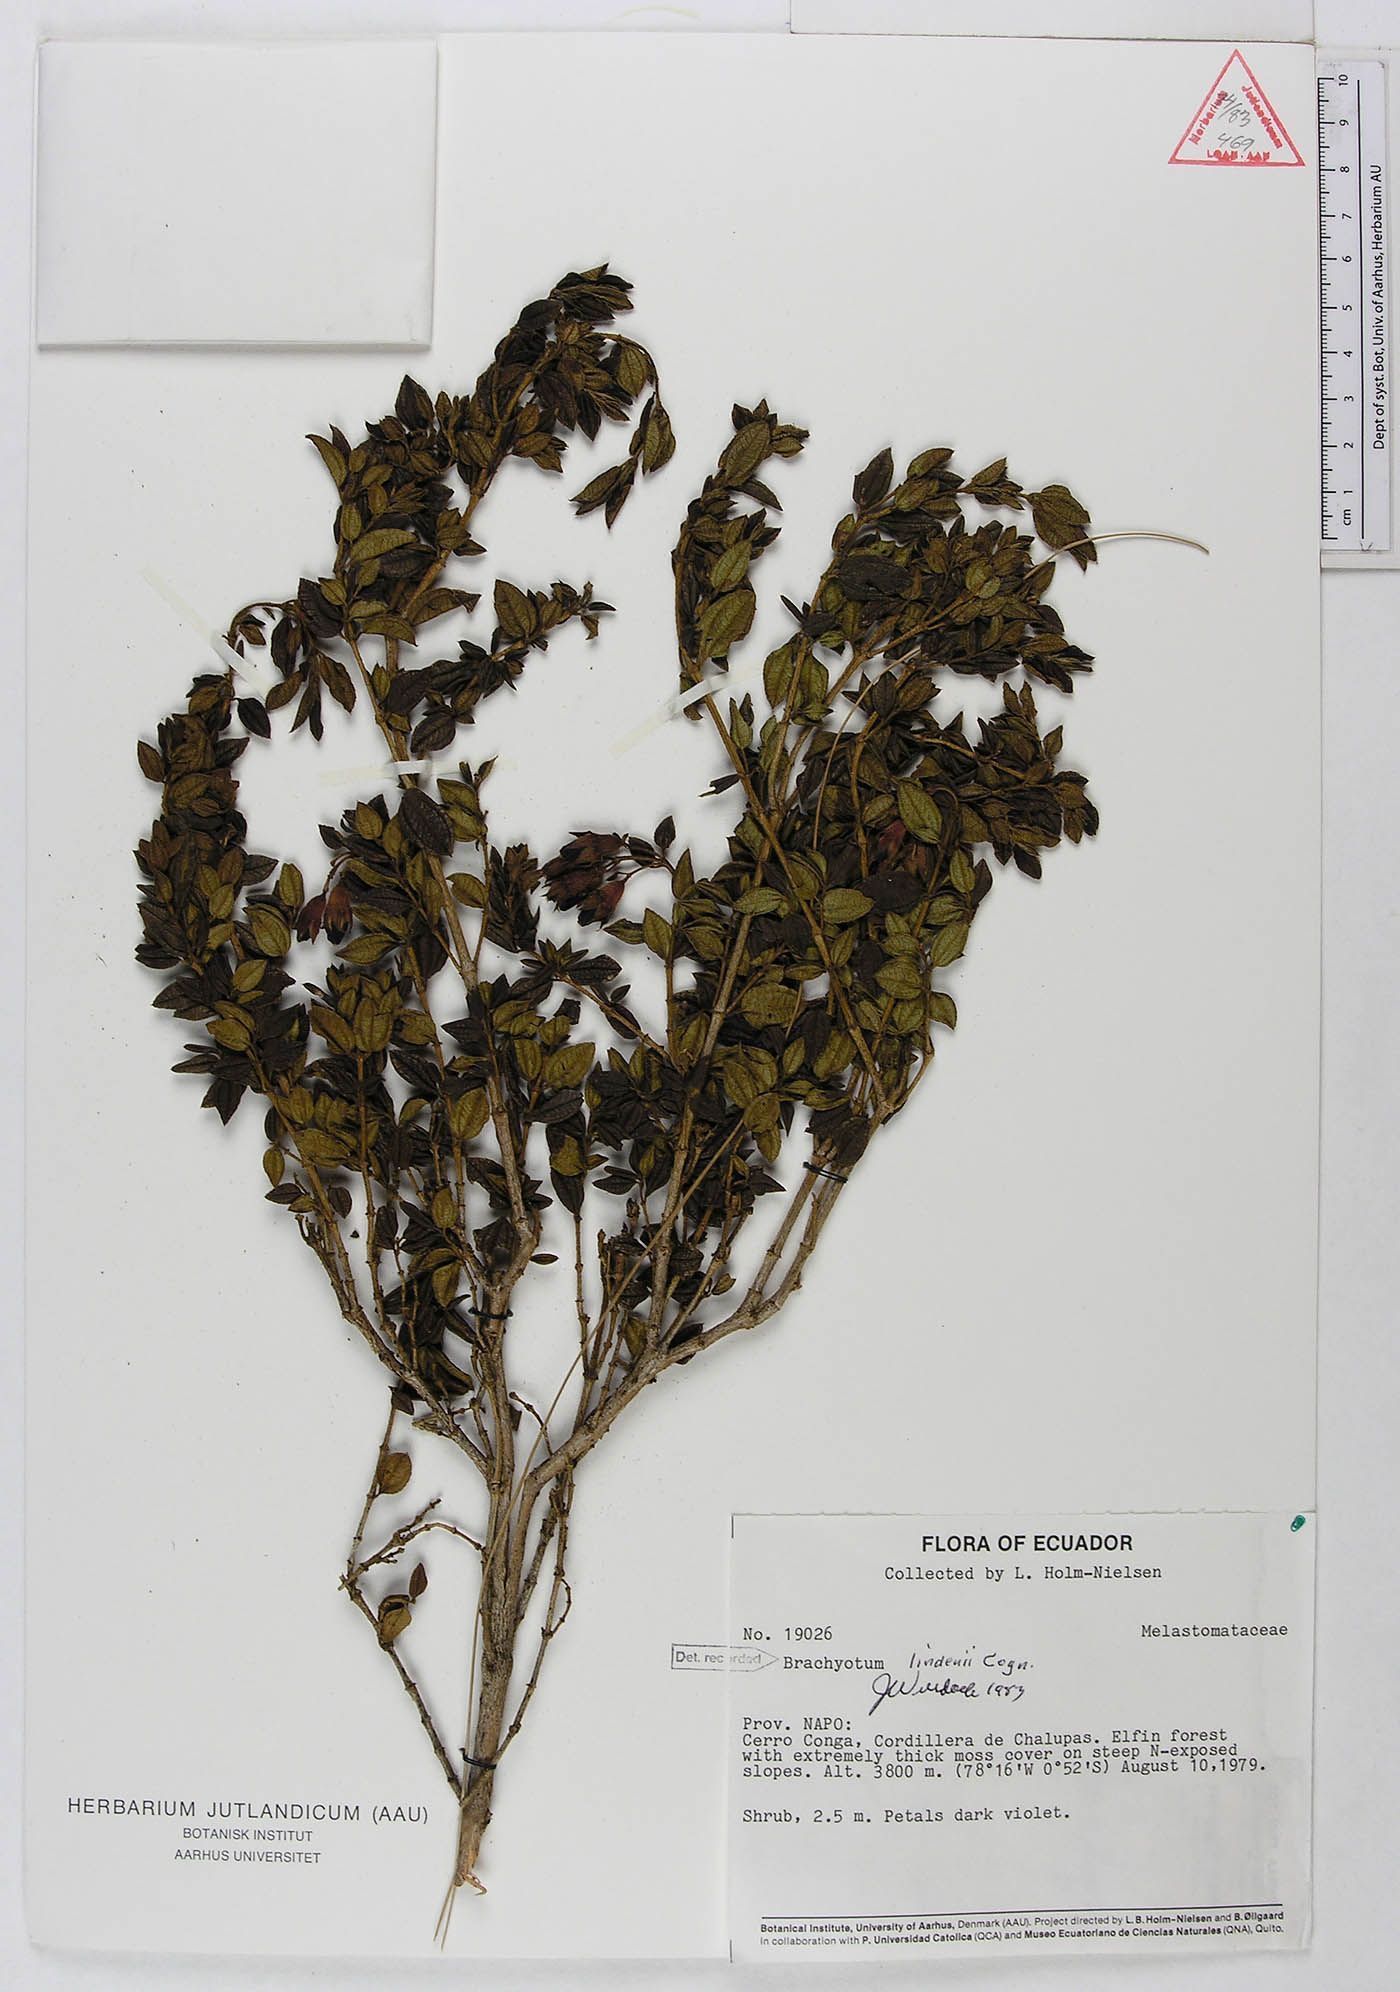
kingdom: Plantae
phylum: Tracheophyta
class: Magnoliopsida
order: Myrtales
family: Melastomataceae
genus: Brachyotum
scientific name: Brachyotum lindenii
